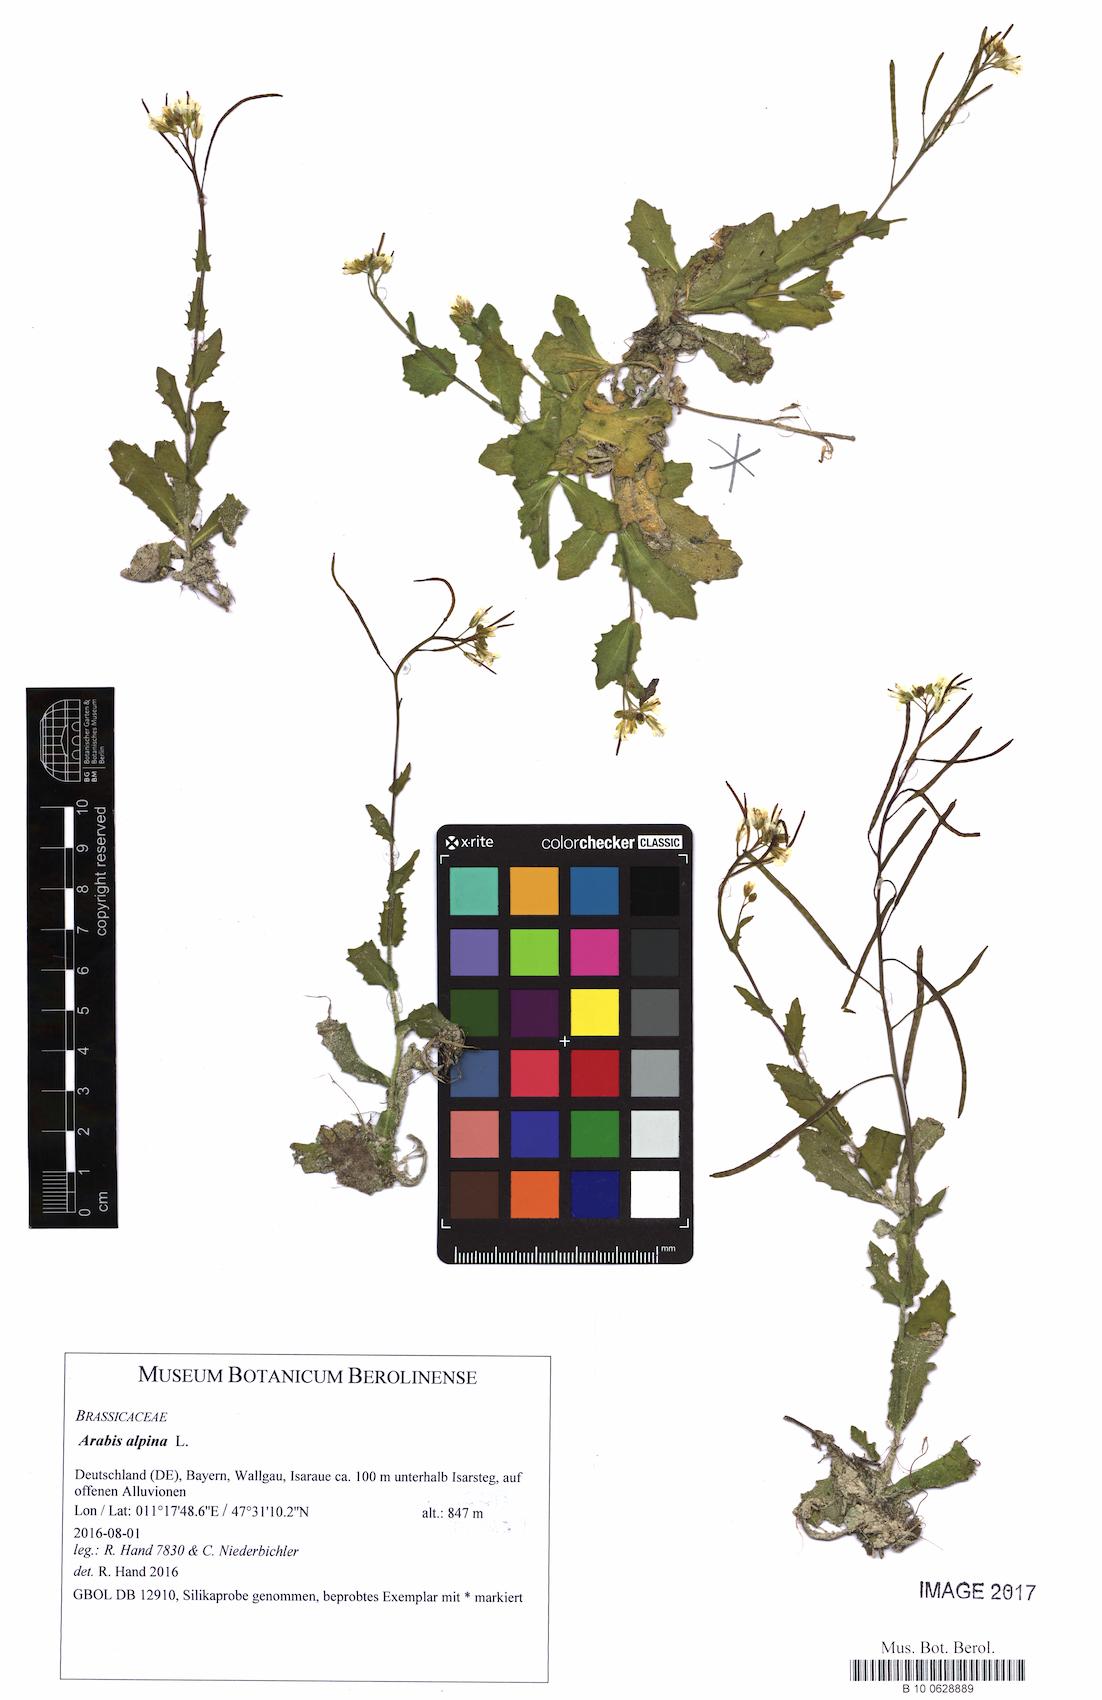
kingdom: Plantae
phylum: Tracheophyta
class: Magnoliopsida
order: Brassicales
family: Brassicaceae
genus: Arabis
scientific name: Arabis alpina
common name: Alpine rock-cress
